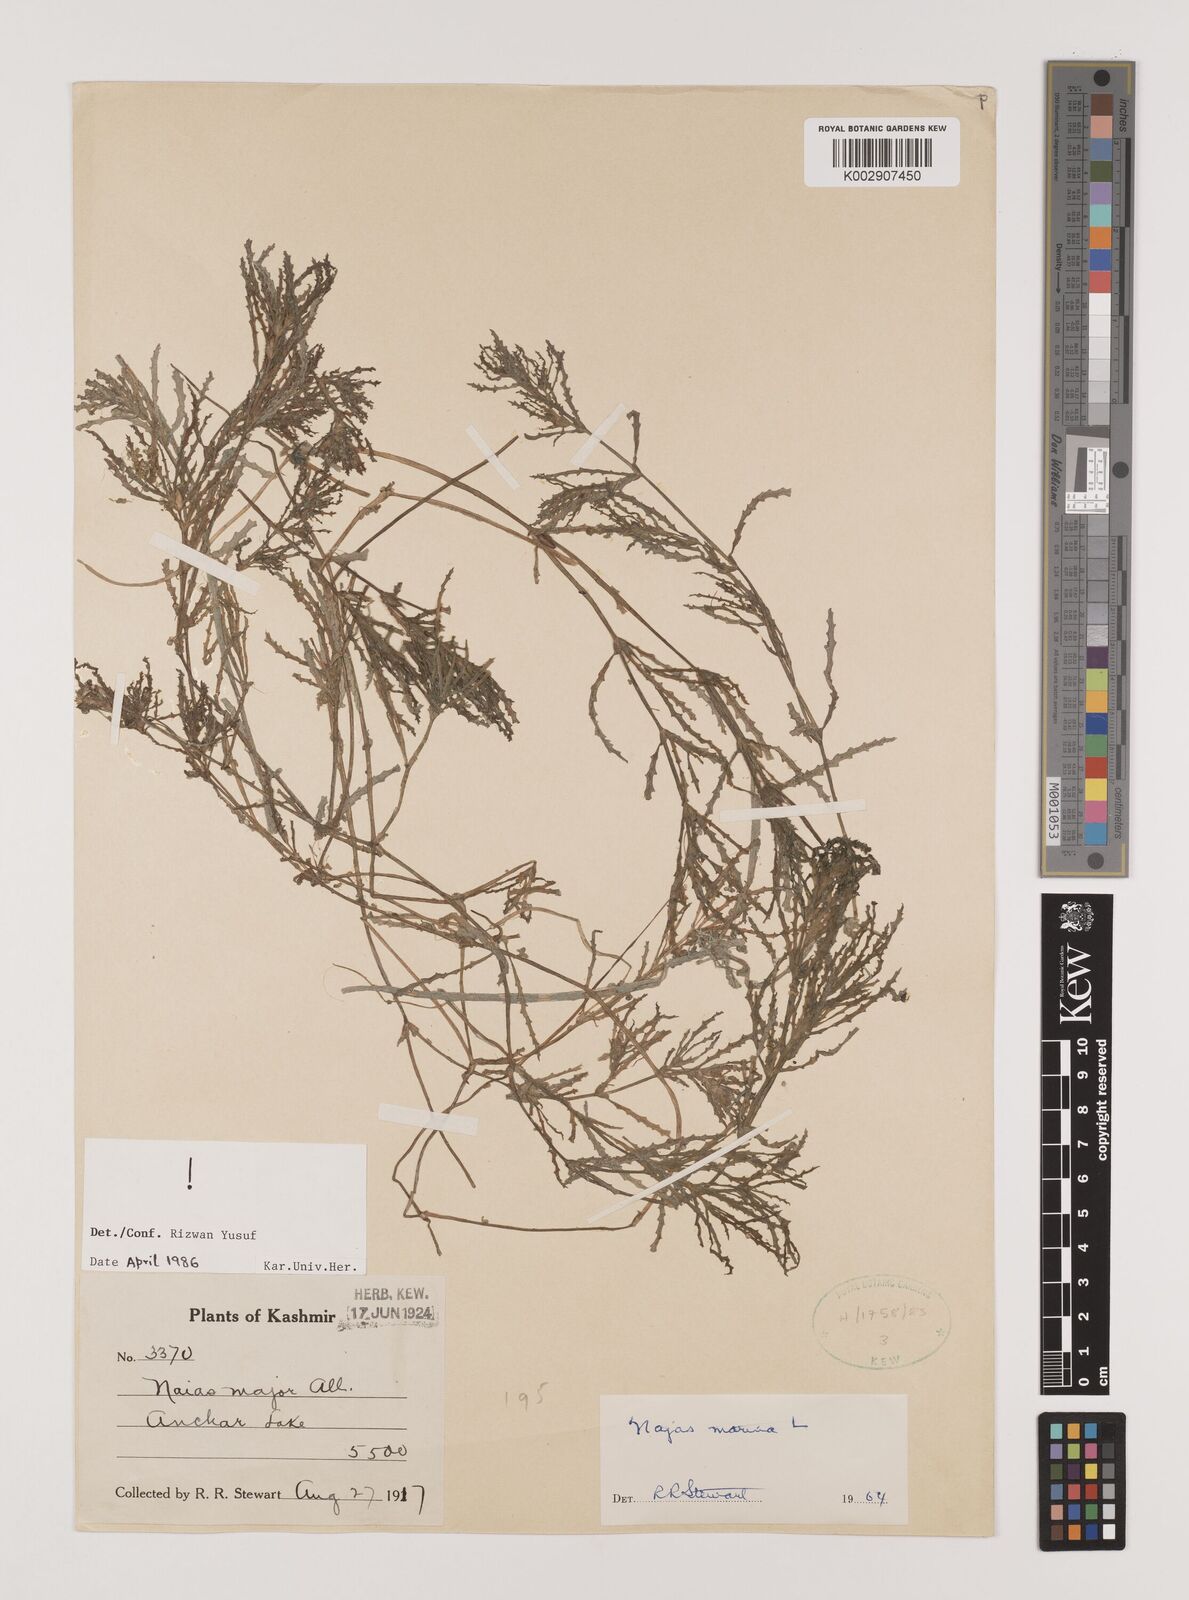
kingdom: Plantae
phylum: Tracheophyta
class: Liliopsida
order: Alismatales
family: Hydrocharitaceae
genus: Najas
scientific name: Najas marina
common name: Holly-leaved naiad
